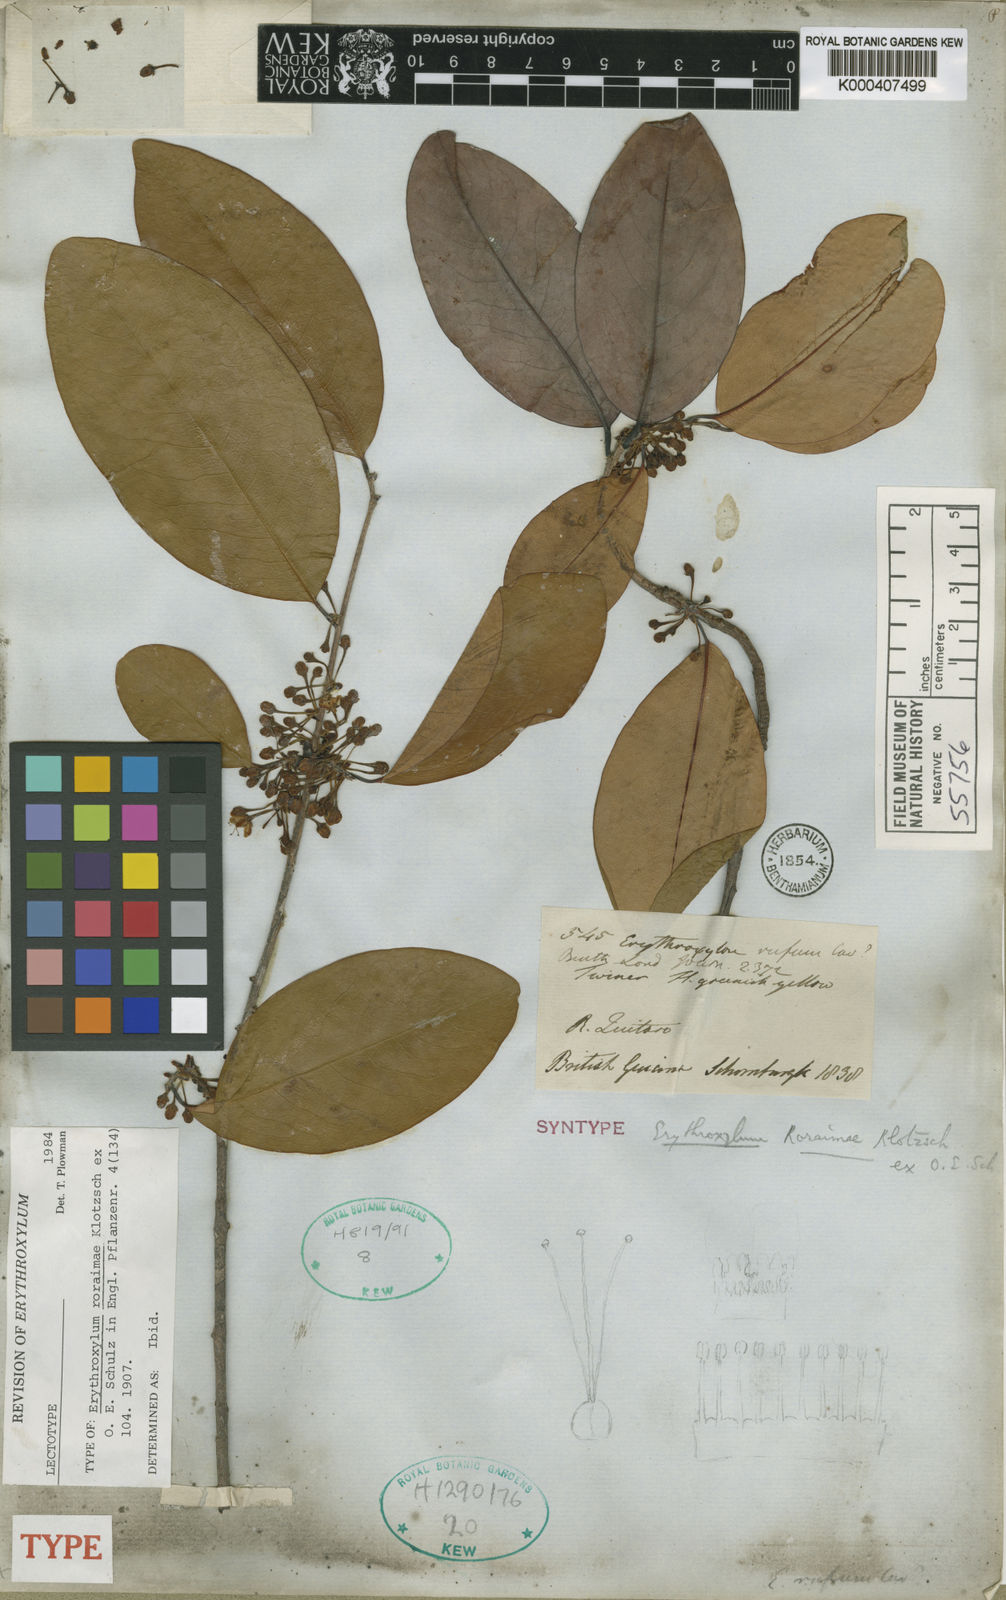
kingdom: Plantae
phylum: Tracheophyta
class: Magnoliopsida
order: Malpighiales
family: Erythroxylaceae
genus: Erythroxylum
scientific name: Erythroxylum roraimae
